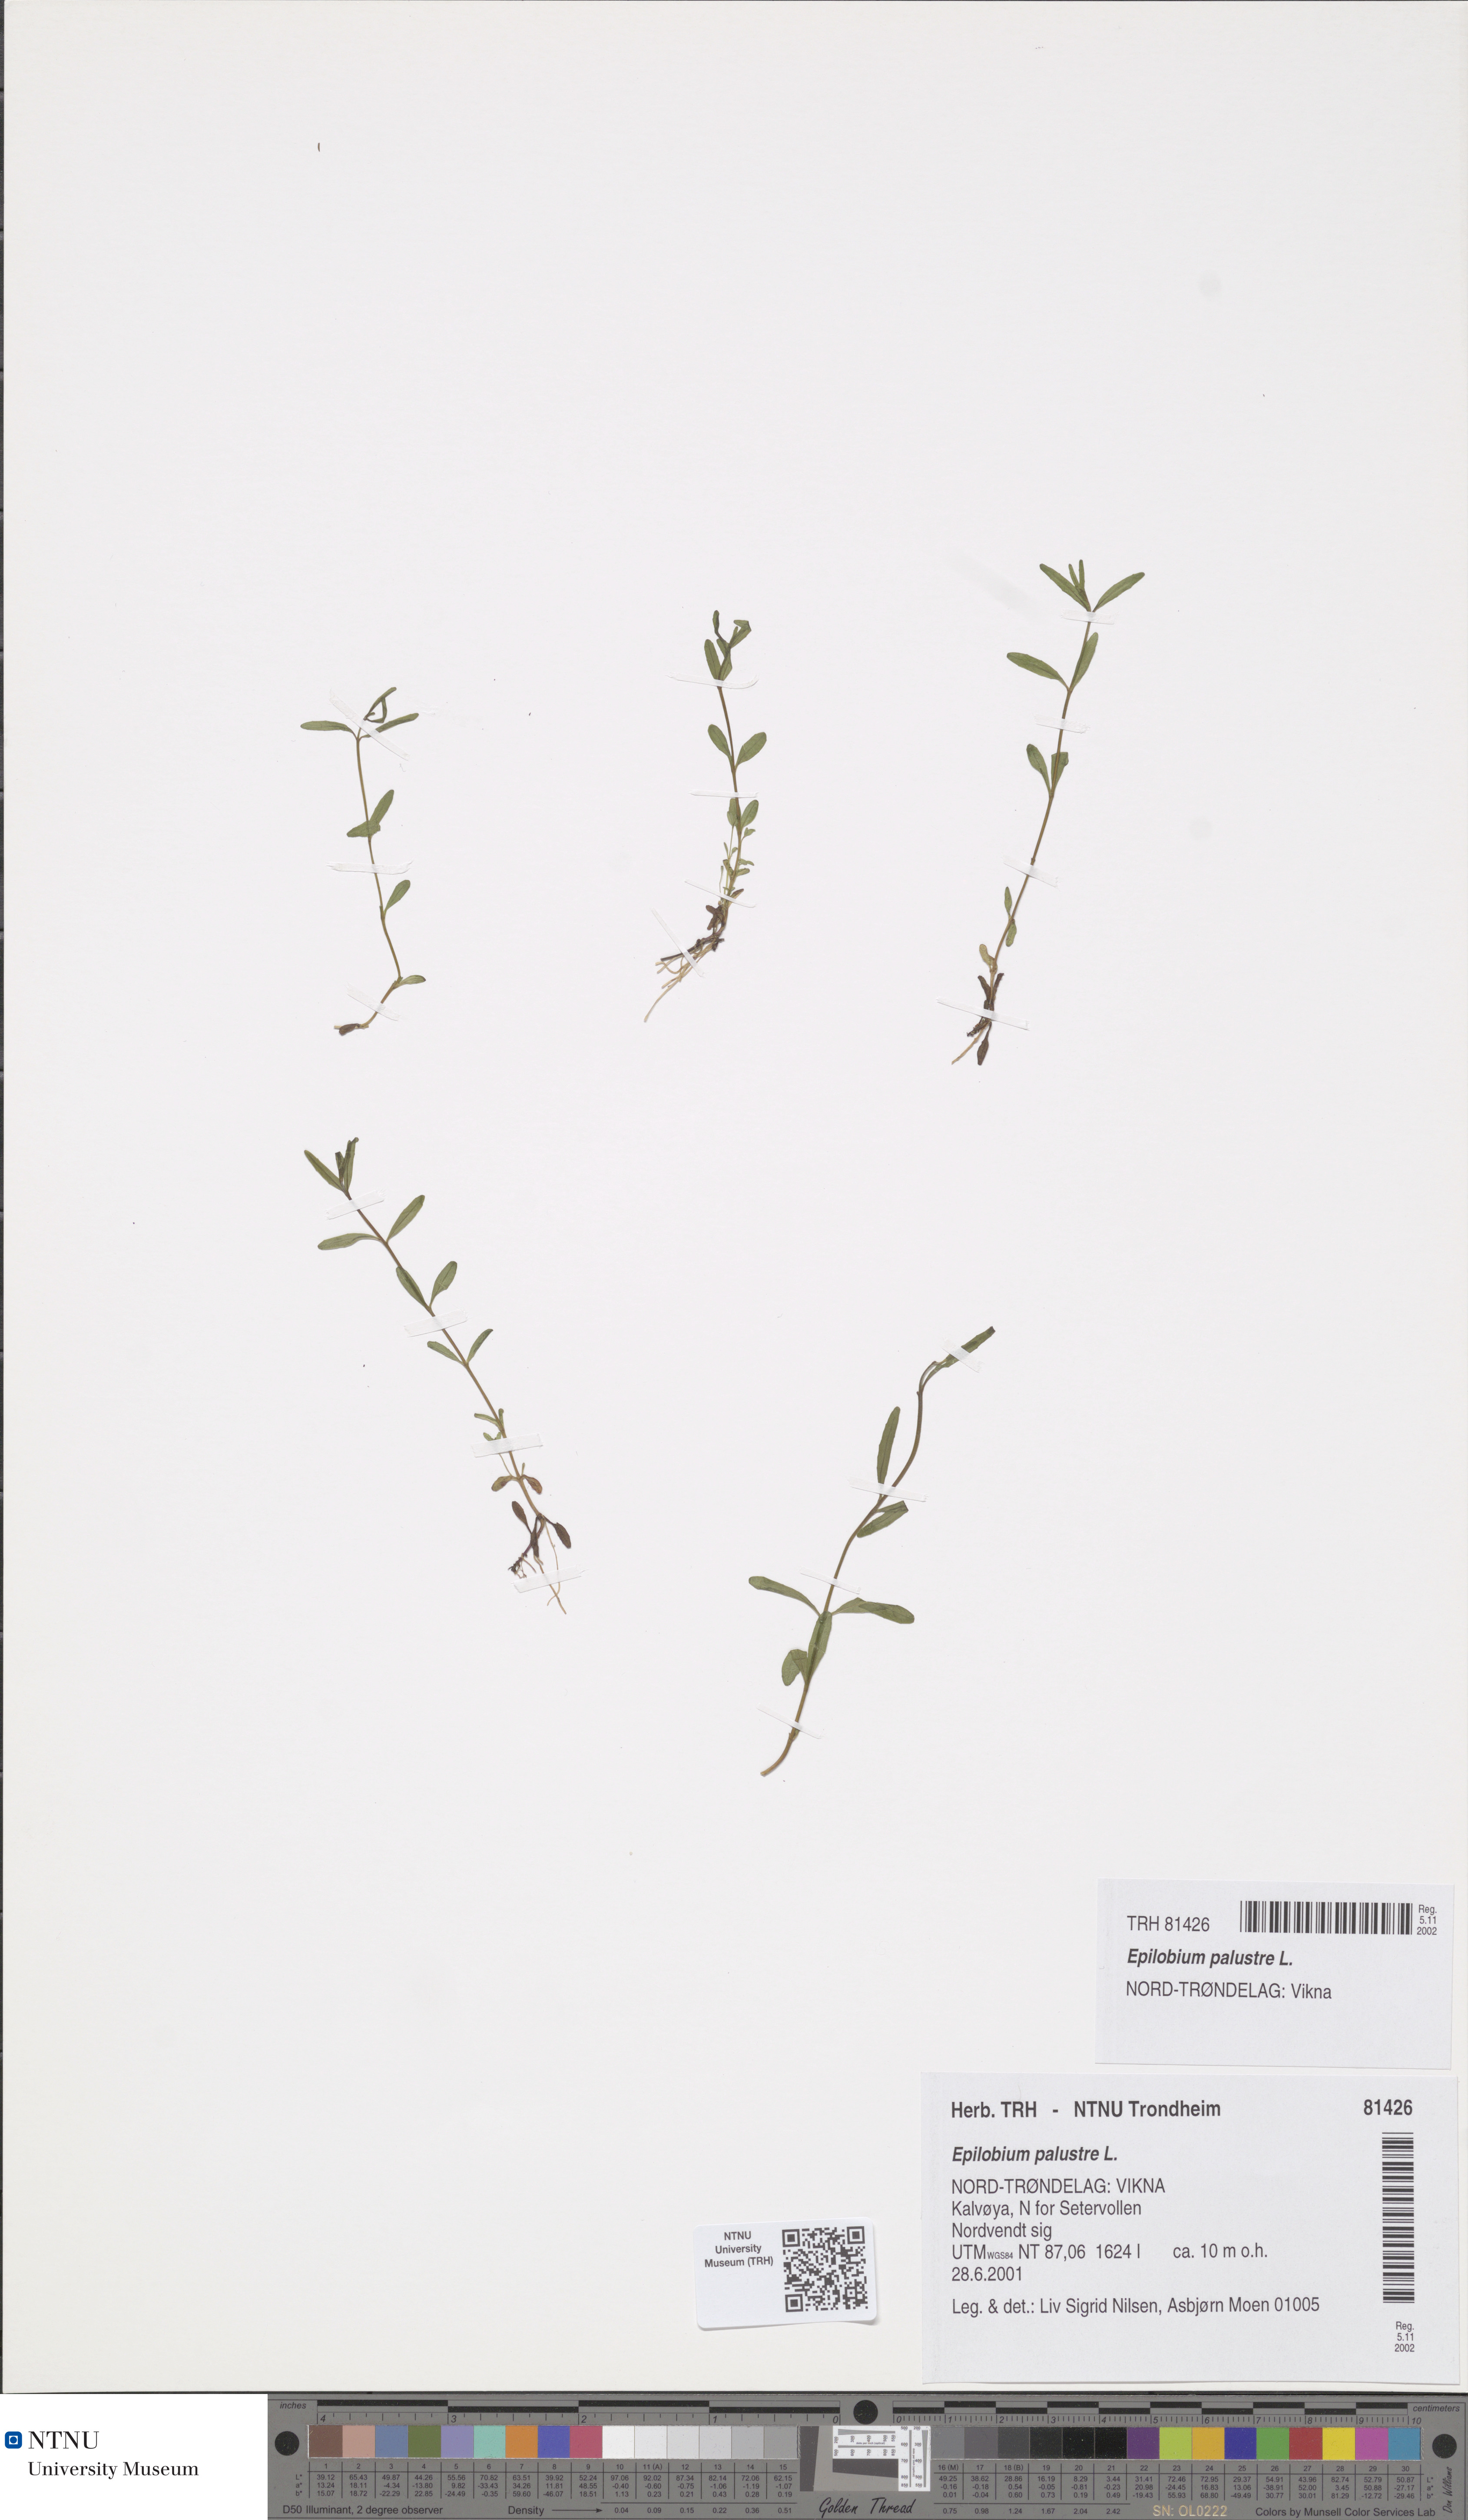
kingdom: Plantae
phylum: Tracheophyta
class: Magnoliopsida
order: Myrtales
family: Onagraceae
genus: Epilobium
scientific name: Epilobium palustre
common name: Marsh willowherb
